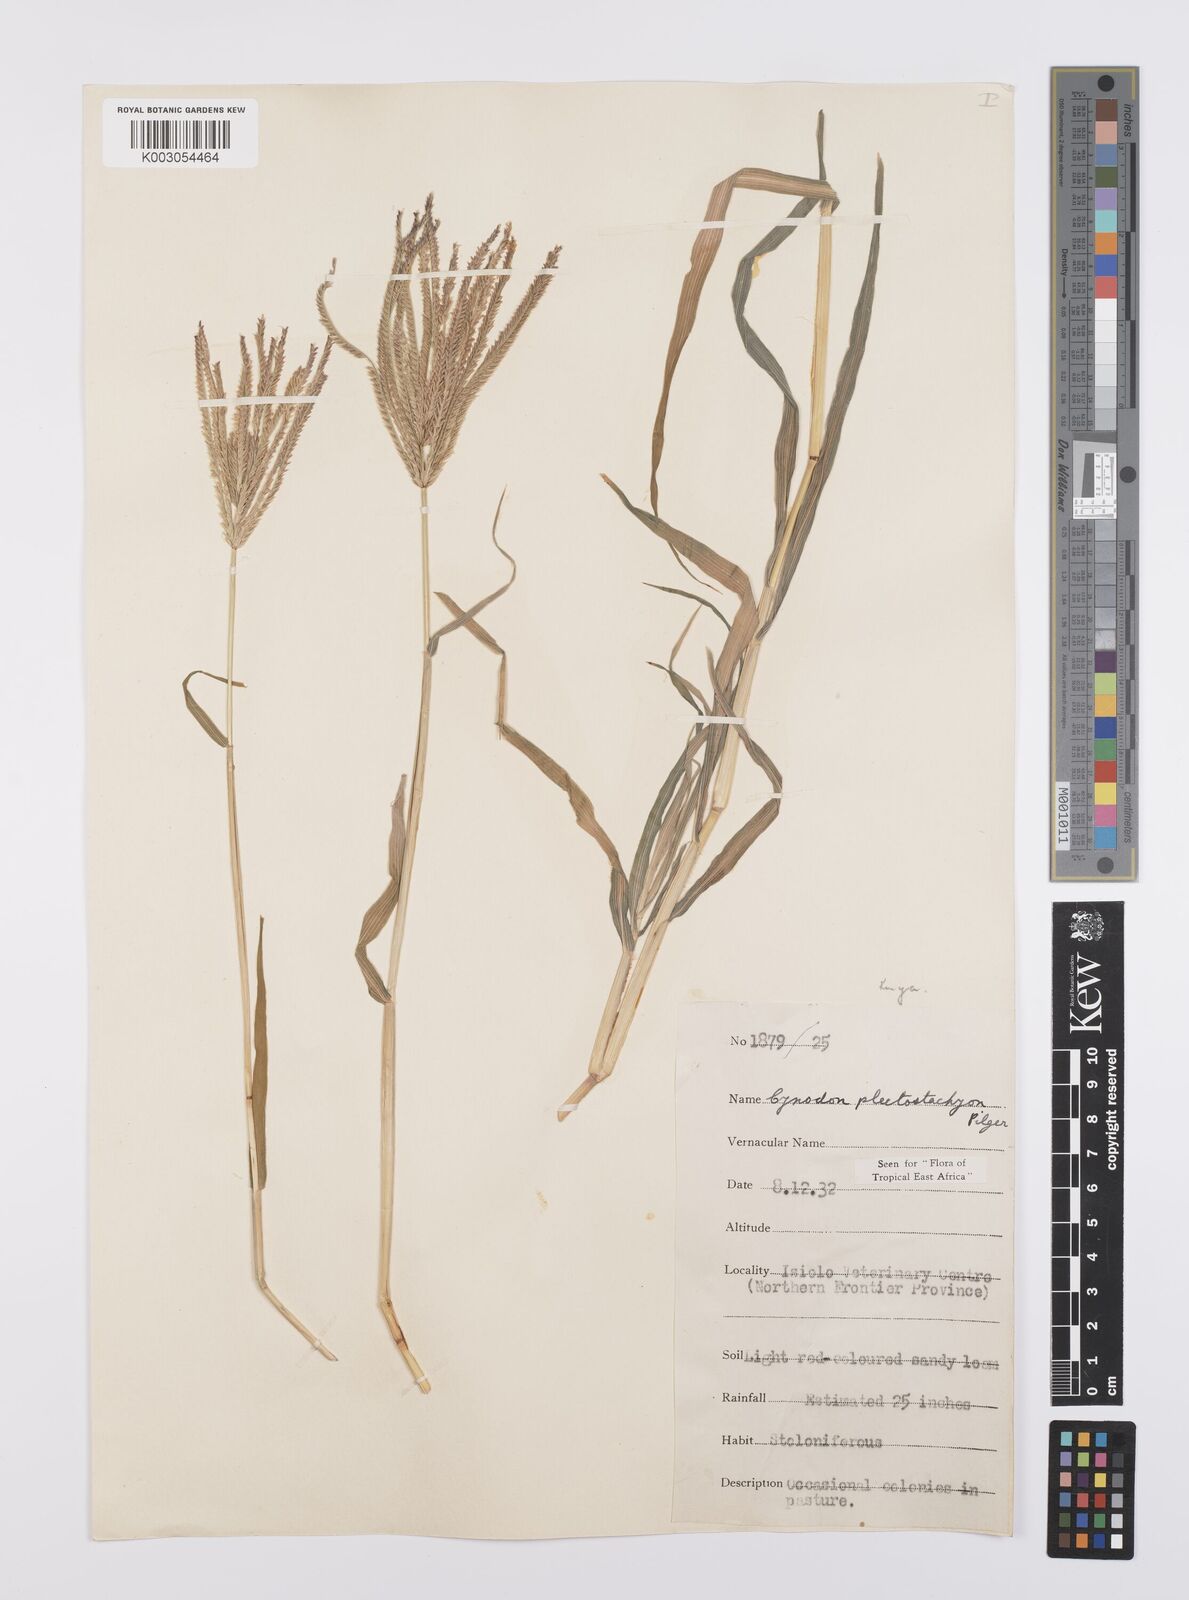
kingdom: Plantae
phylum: Tracheophyta
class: Liliopsida
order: Poales
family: Poaceae
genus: Cynodon
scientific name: Cynodon plectostachyus
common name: Stargrass
